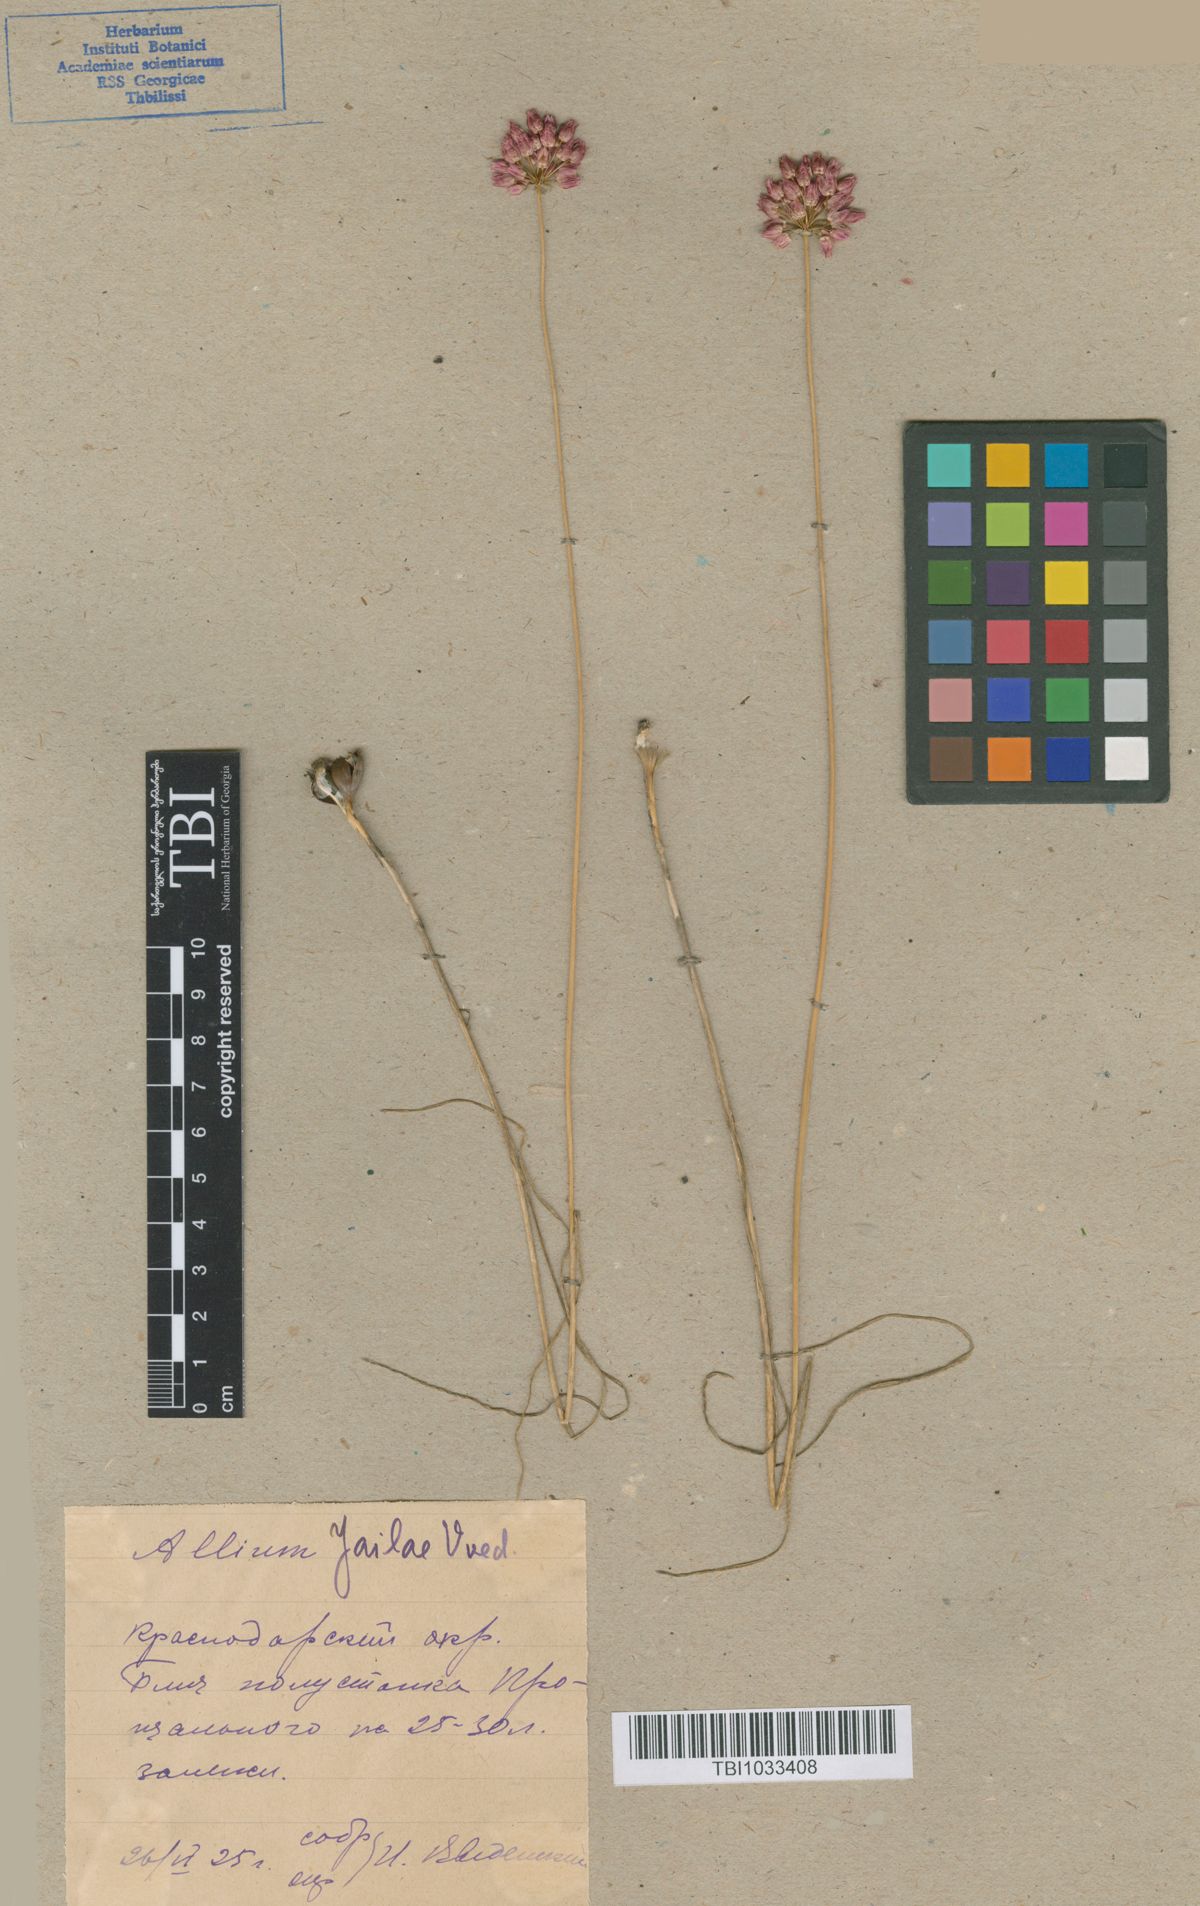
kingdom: Plantae
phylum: Tracheophyta
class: Liliopsida
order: Asparagales
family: Amaryllidaceae
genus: Allium
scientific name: Allium rotundum
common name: Sand leek
